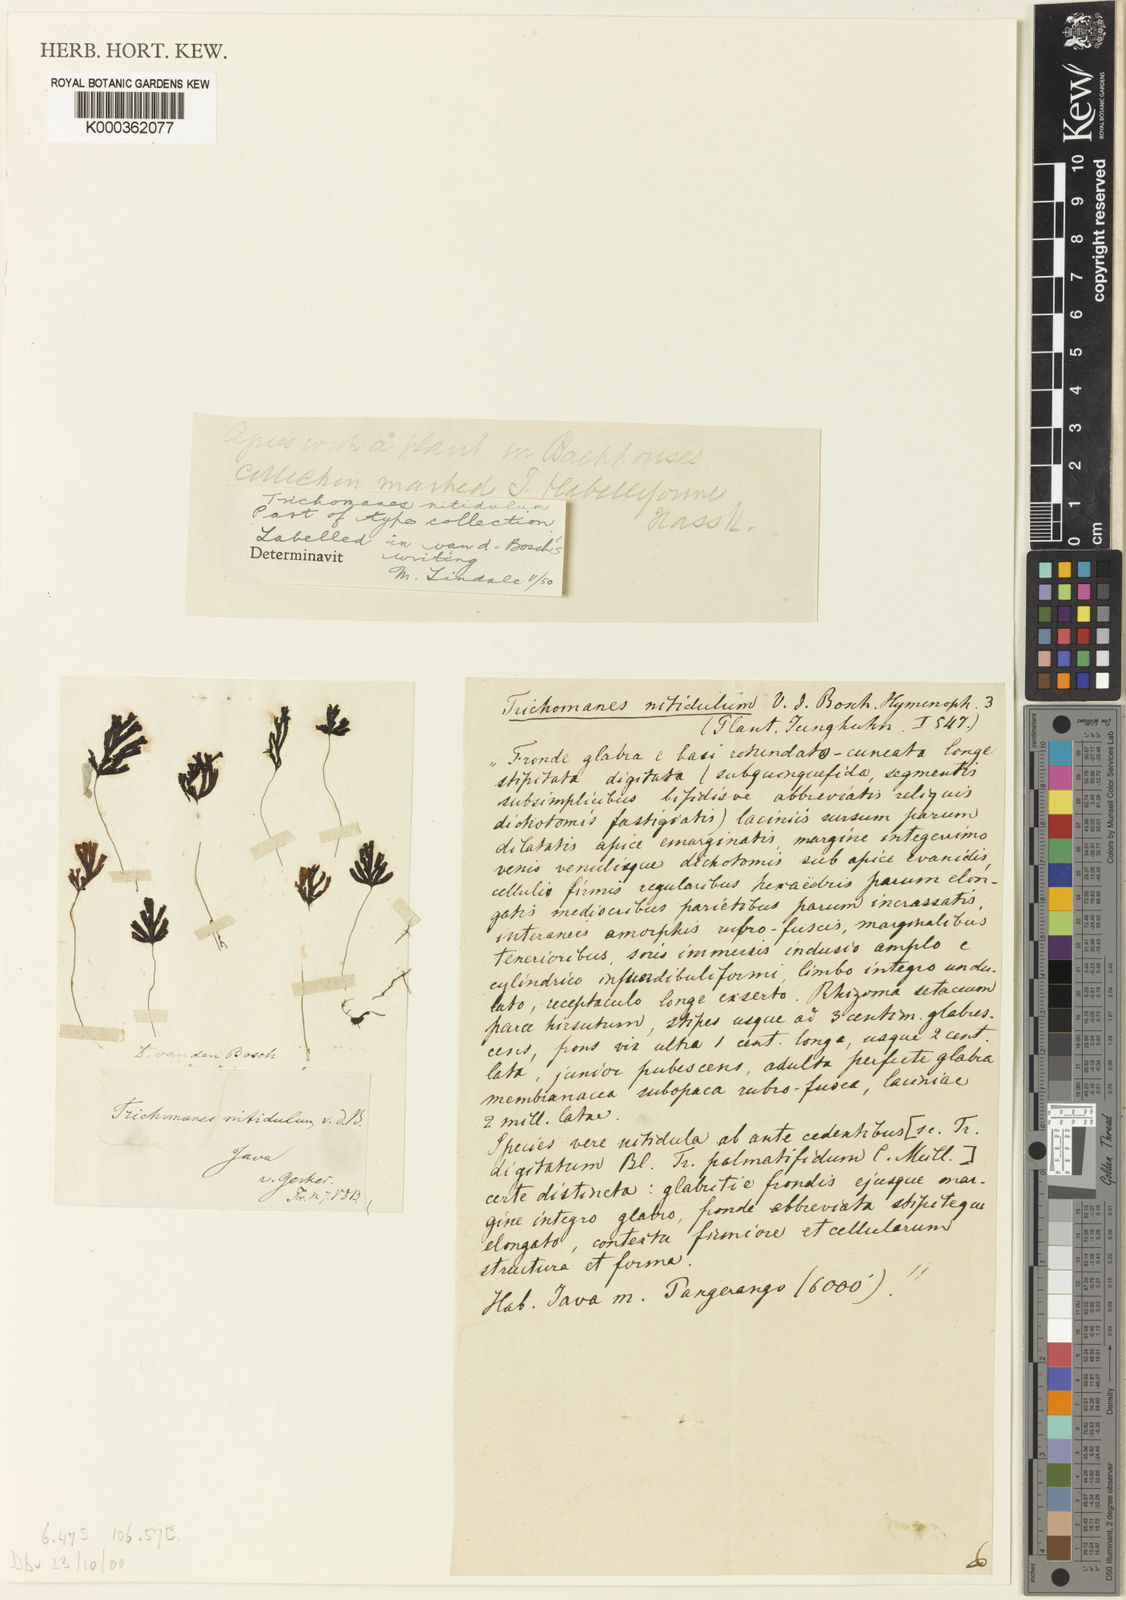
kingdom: Plantae
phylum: Tracheophyta
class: Polypodiopsida
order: Hymenophyllales
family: Hymenophyllaceae
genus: Hymenophyllum
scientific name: Hymenophyllum nitidulum
